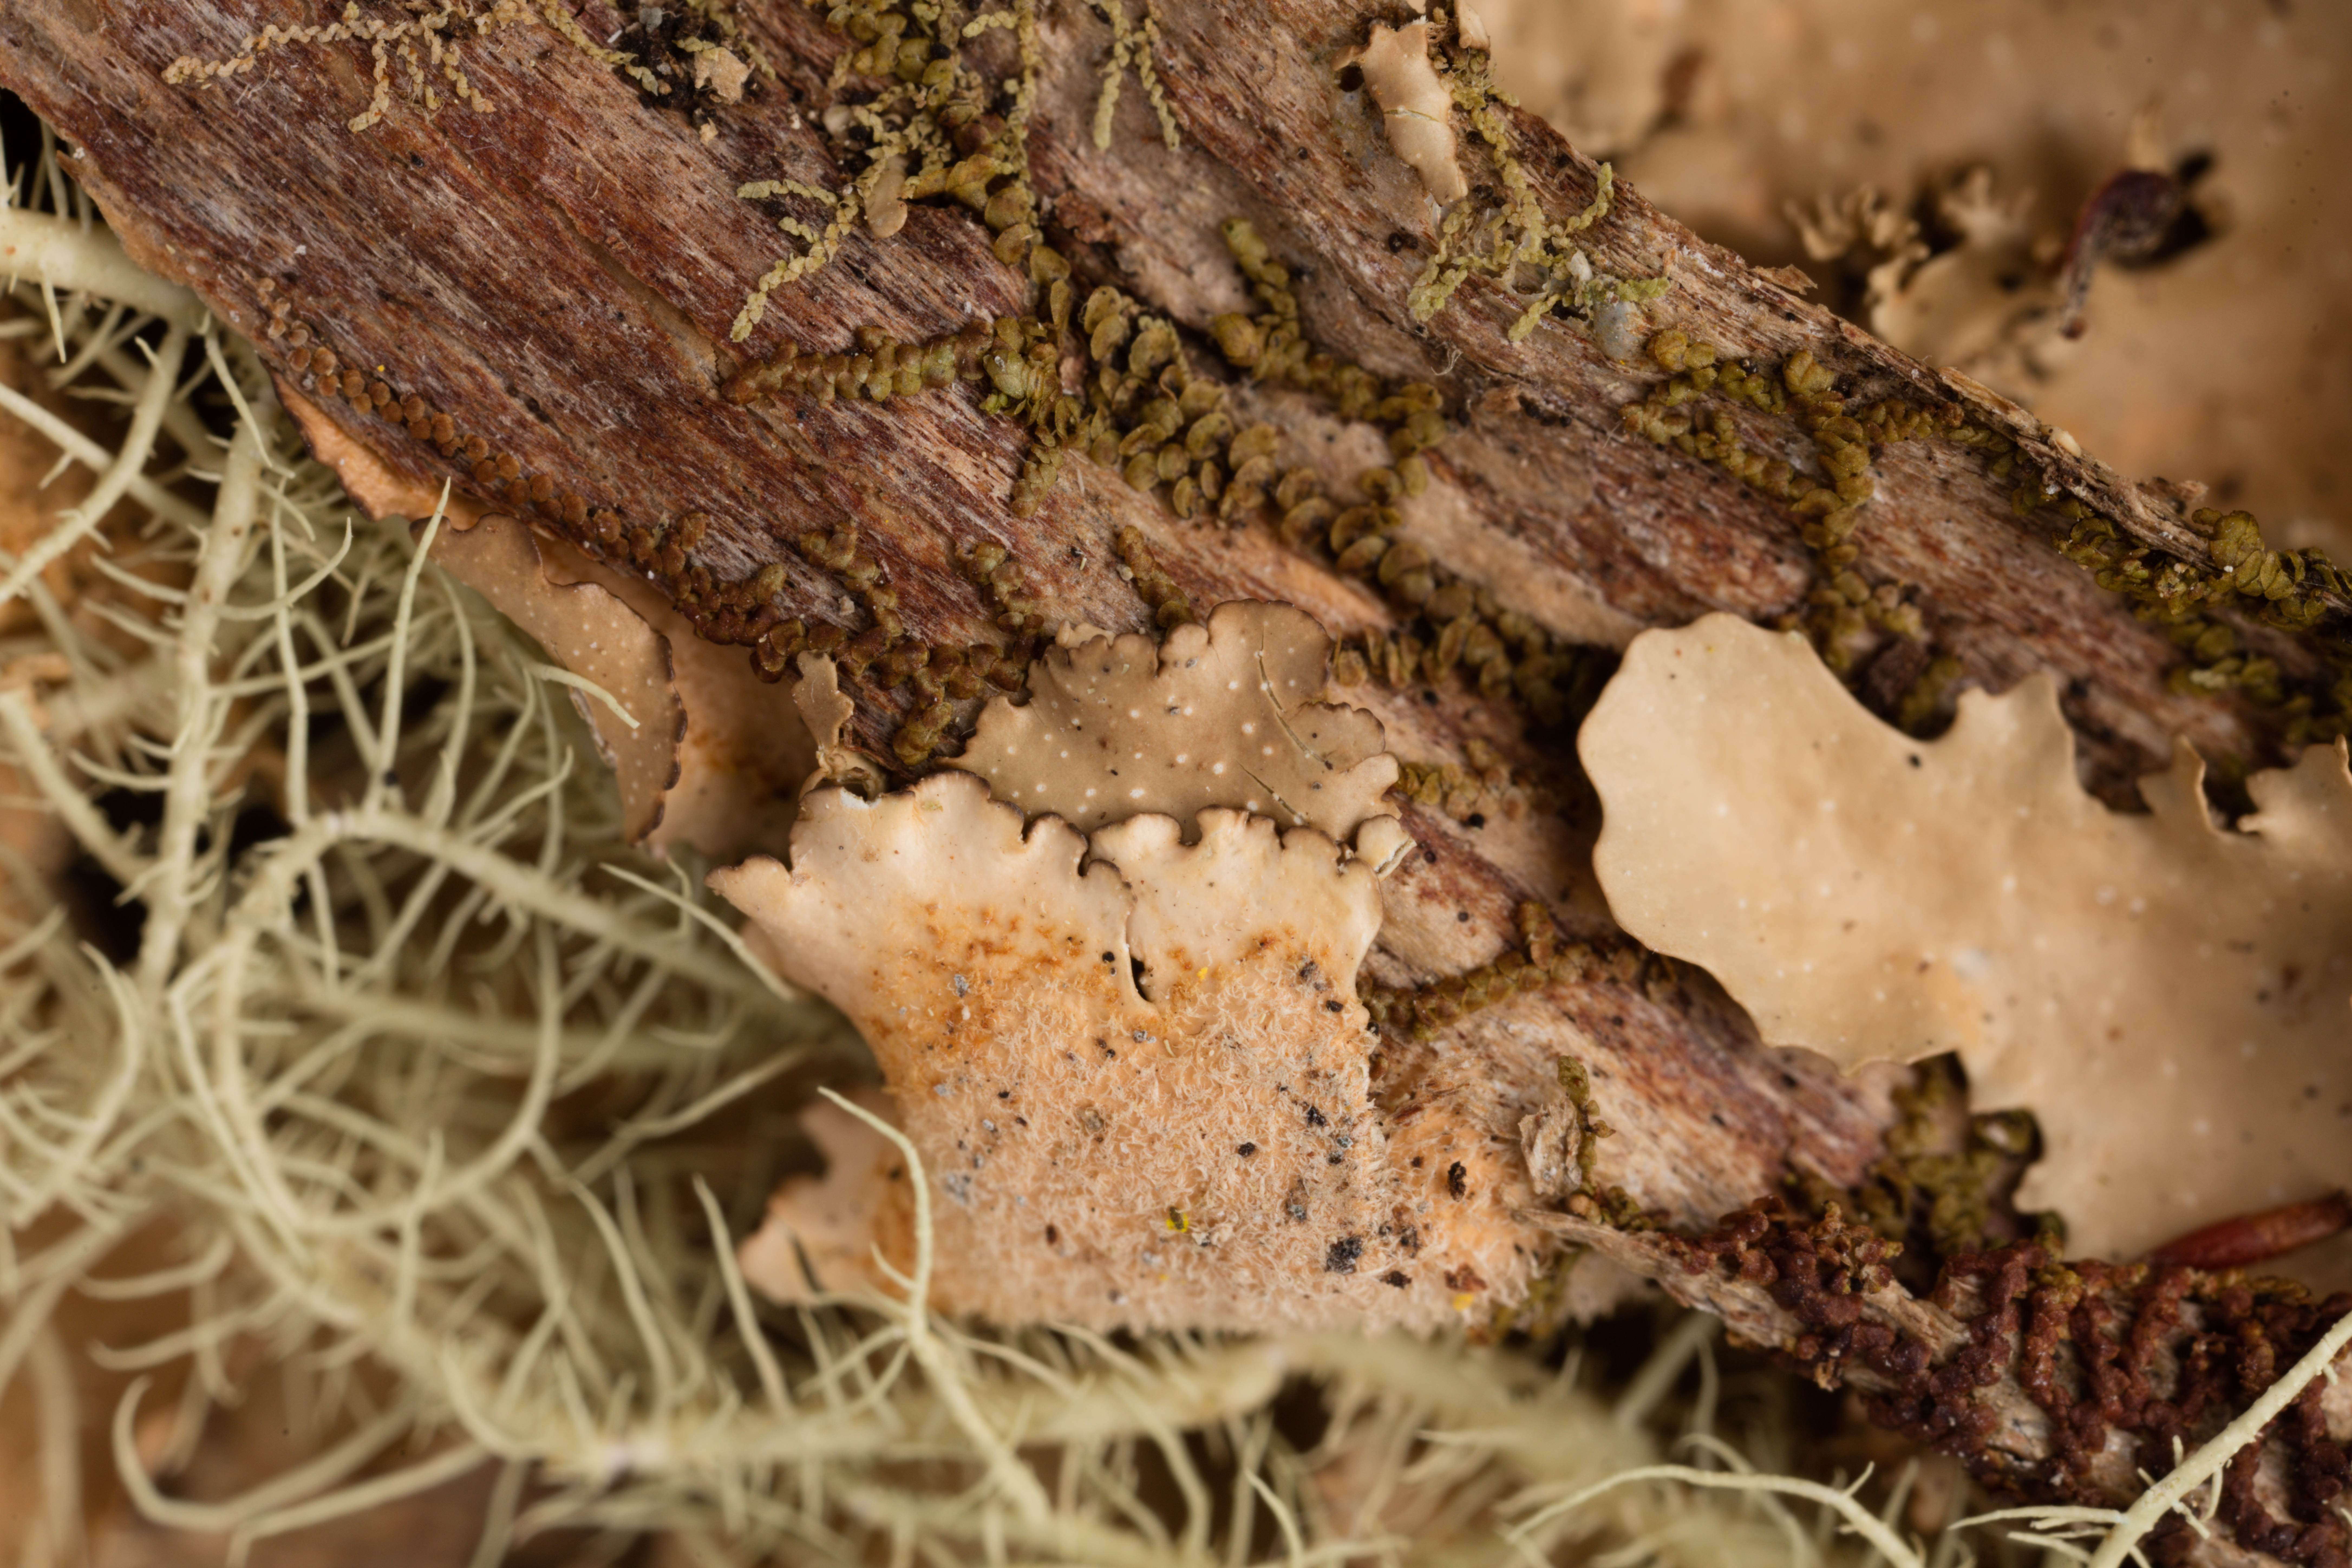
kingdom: Fungi
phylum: Ascomycota
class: Lecanoromycetes
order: Peltigerales
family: Lobariaceae
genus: Pseudocyphellaria
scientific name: Pseudocyphellaria episticta
